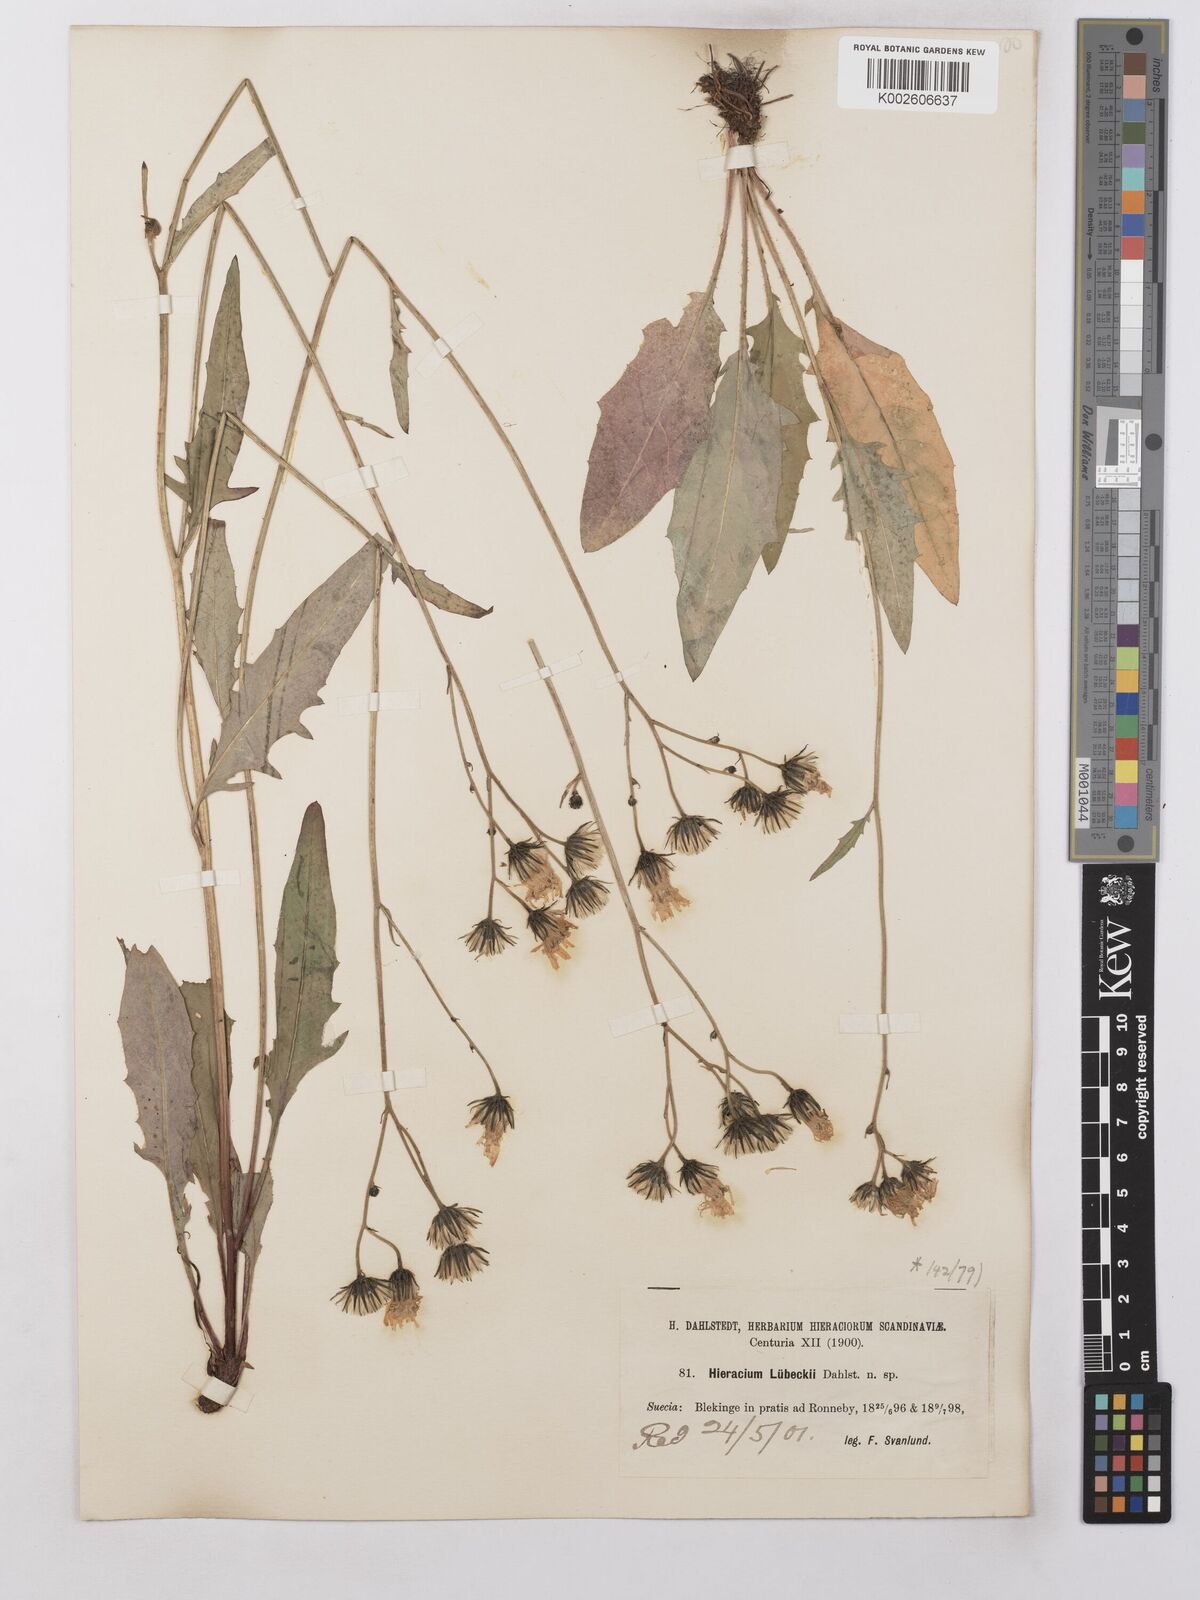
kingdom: Plantae
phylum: Tracheophyta
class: Magnoliopsida
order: Asterales
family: Asteraceae
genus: Hieracium
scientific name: Hieracium lachenalii
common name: Common hawkweed
